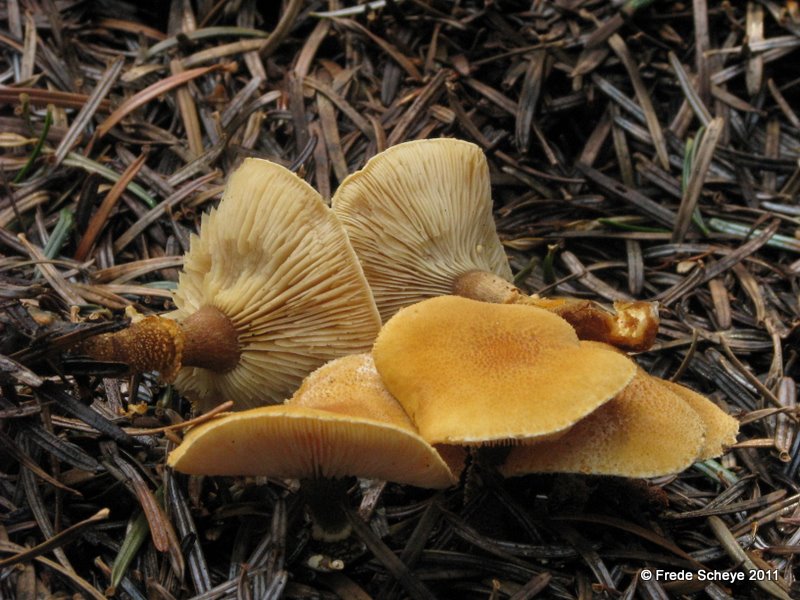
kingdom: Fungi
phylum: Basidiomycota
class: Agaricomycetes
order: Agaricales
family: Tricholomataceae
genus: Cystoderma
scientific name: Cystoderma amianthinum
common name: okkergul grynhat
